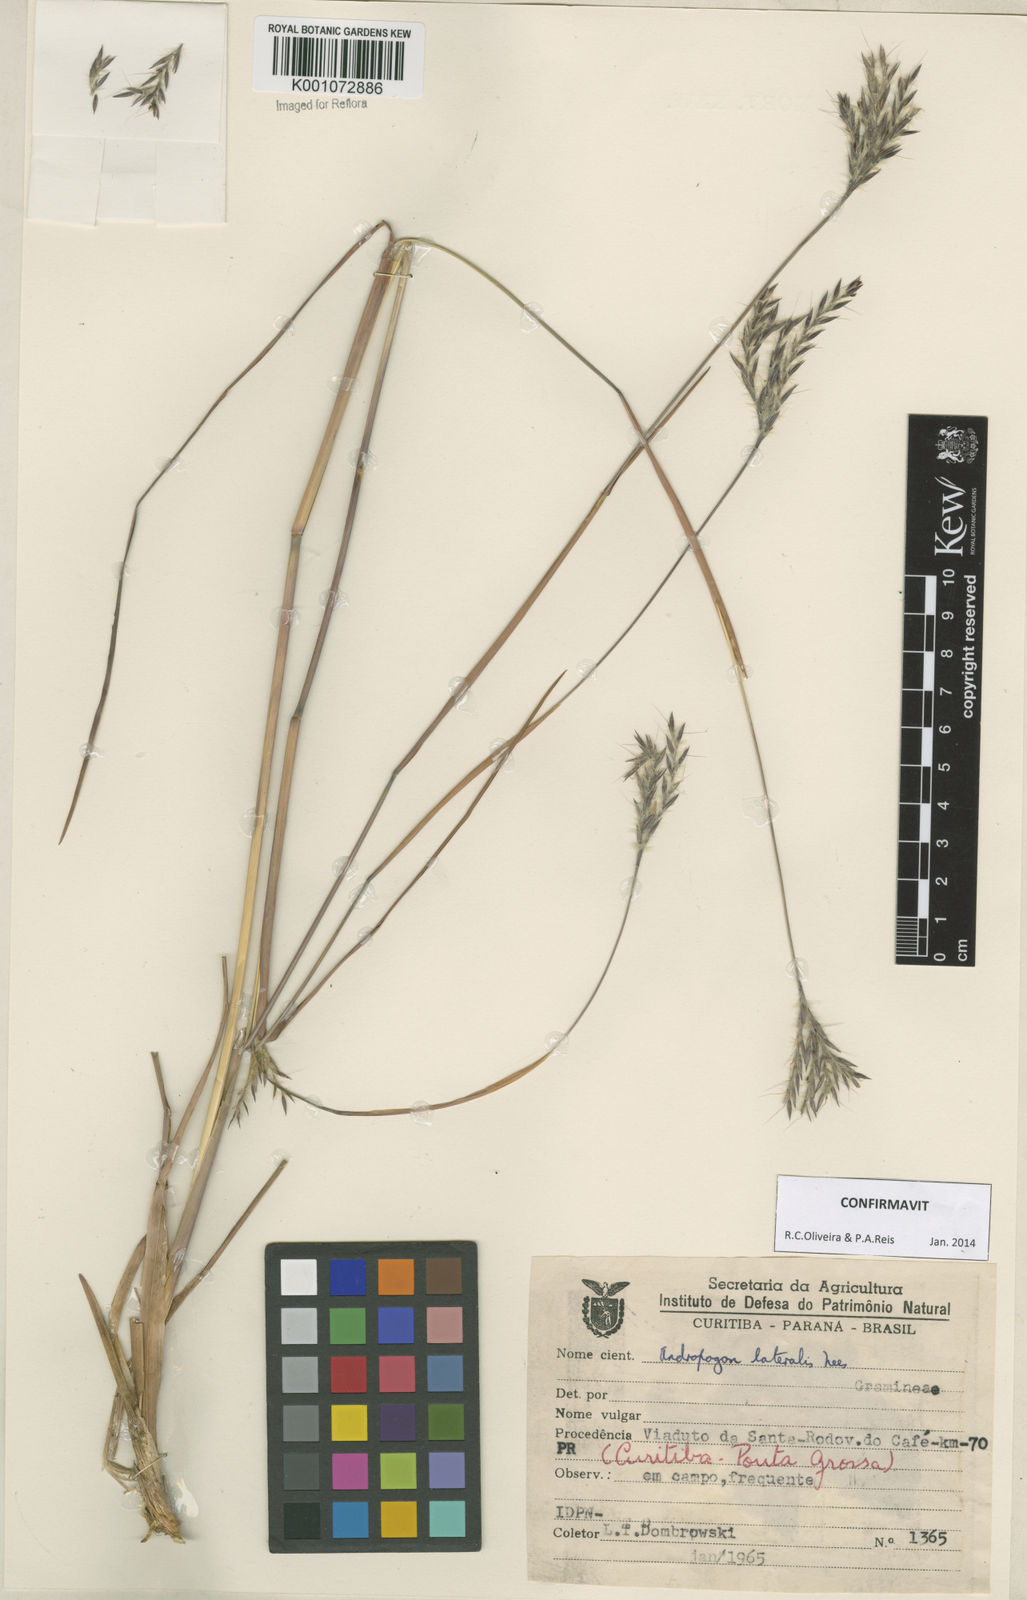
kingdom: Plantae
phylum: Tracheophyta
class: Liliopsida
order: Poales
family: Poaceae
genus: Andropogon
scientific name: Andropogon lateralis
